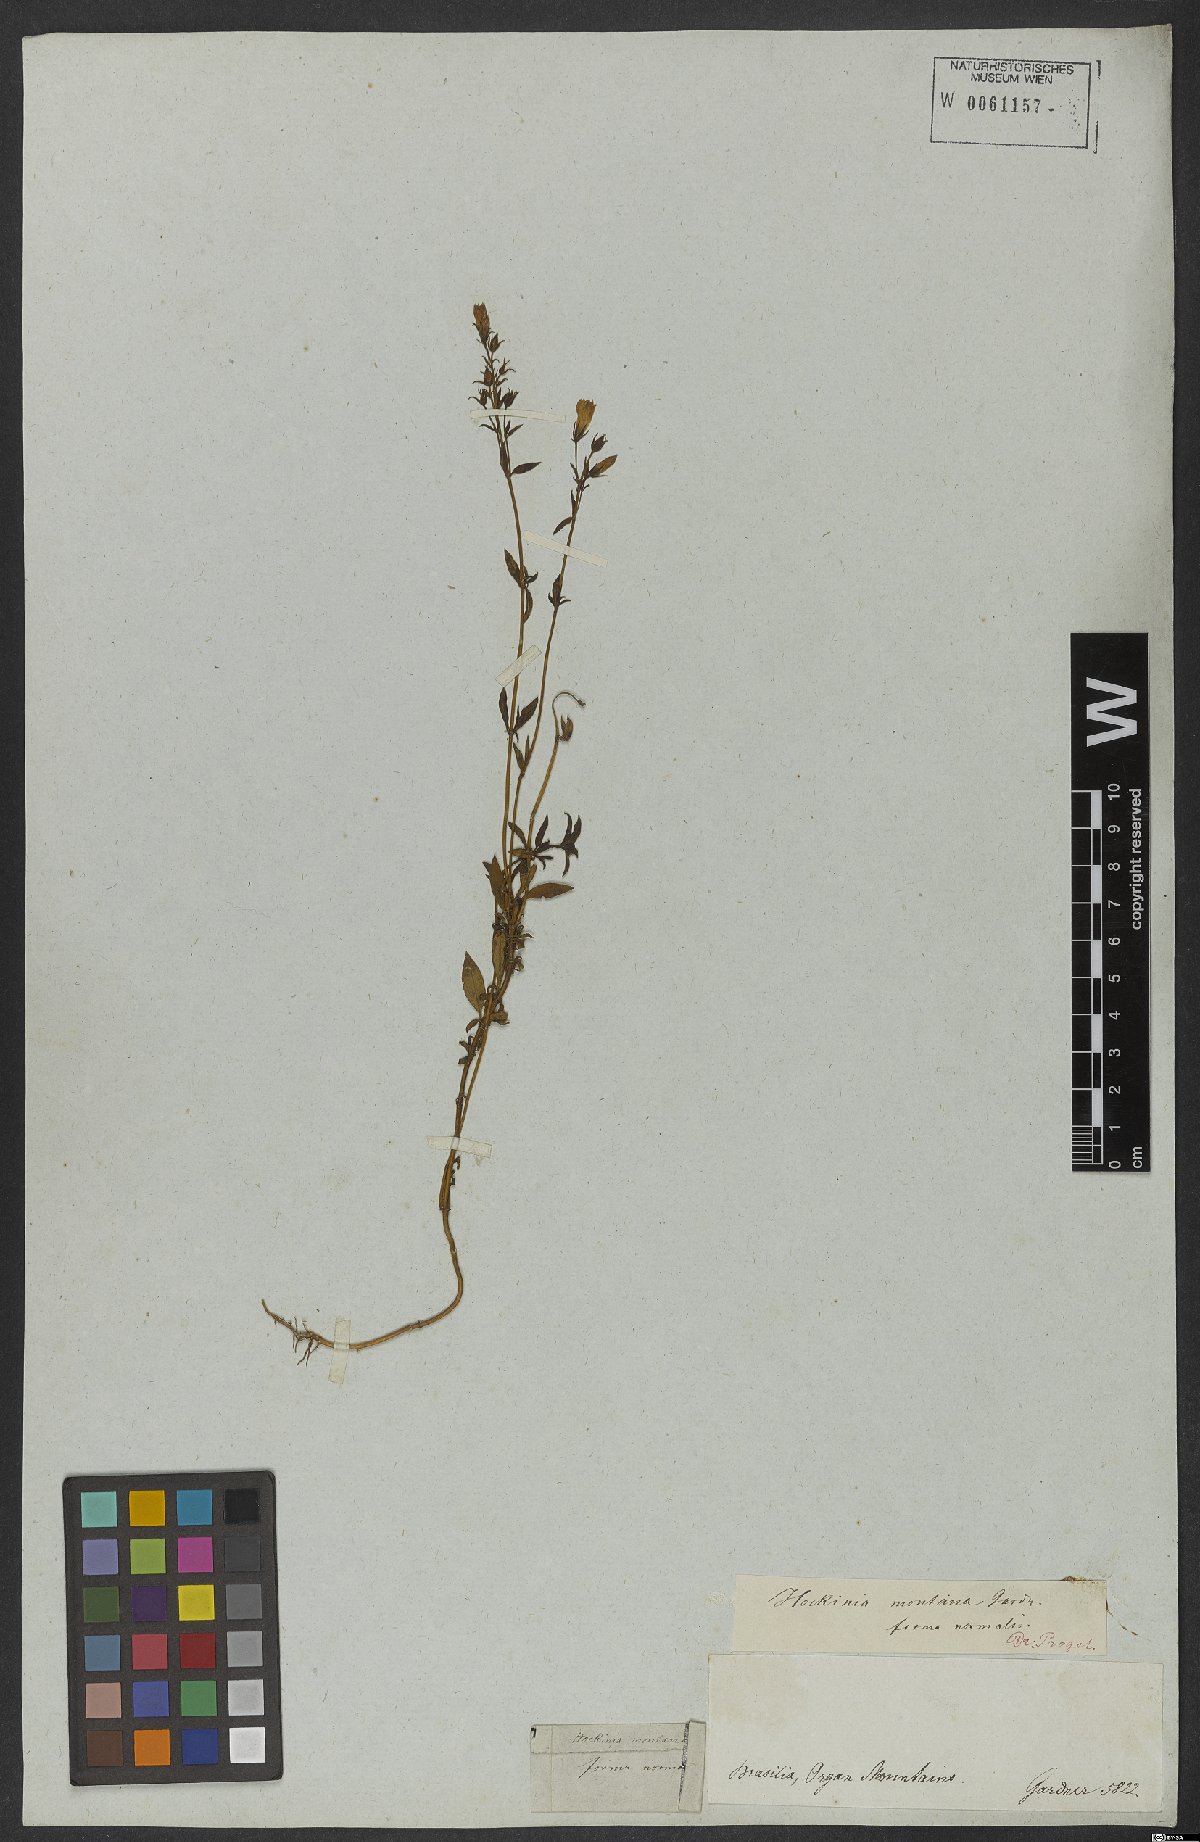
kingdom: Plantae
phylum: Tracheophyta
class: Magnoliopsida
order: Gentianales
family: Gentianaceae
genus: Hockinia
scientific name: Hockinia montana
